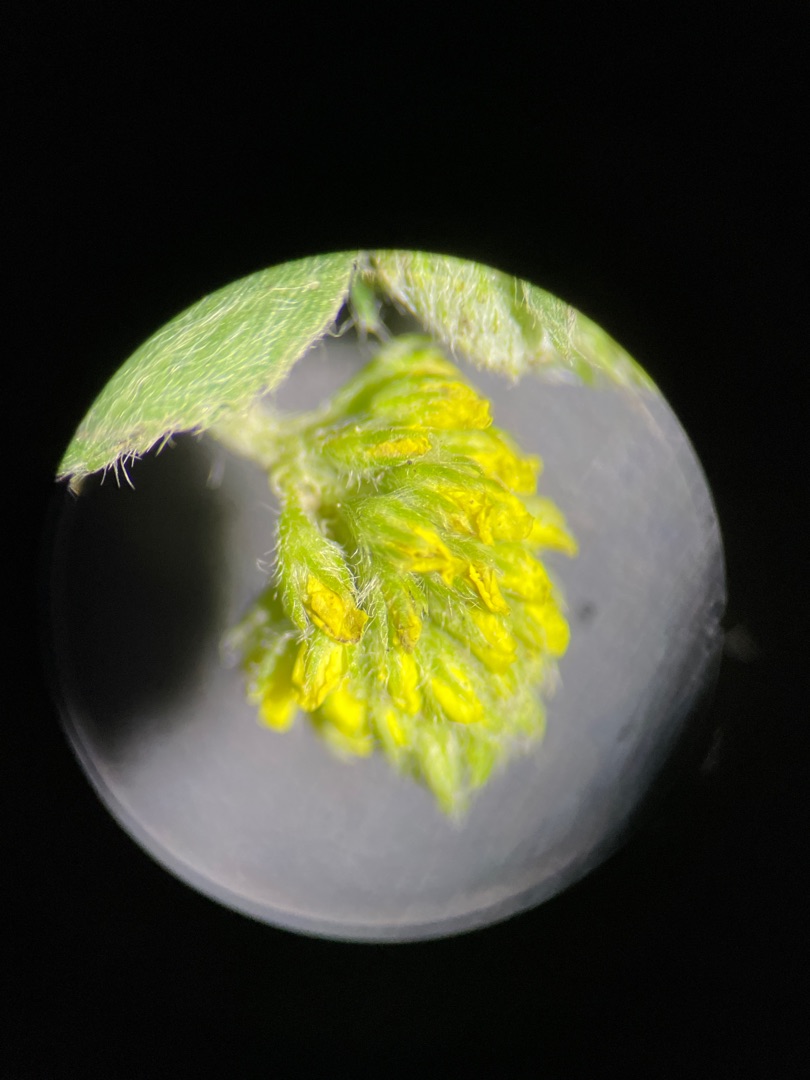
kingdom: Plantae
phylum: Tracheophyta
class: Magnoliopsida
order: Fabales
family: Fabaceae
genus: Medicago
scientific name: Medicago lupulina
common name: Humle-sneglebælg
